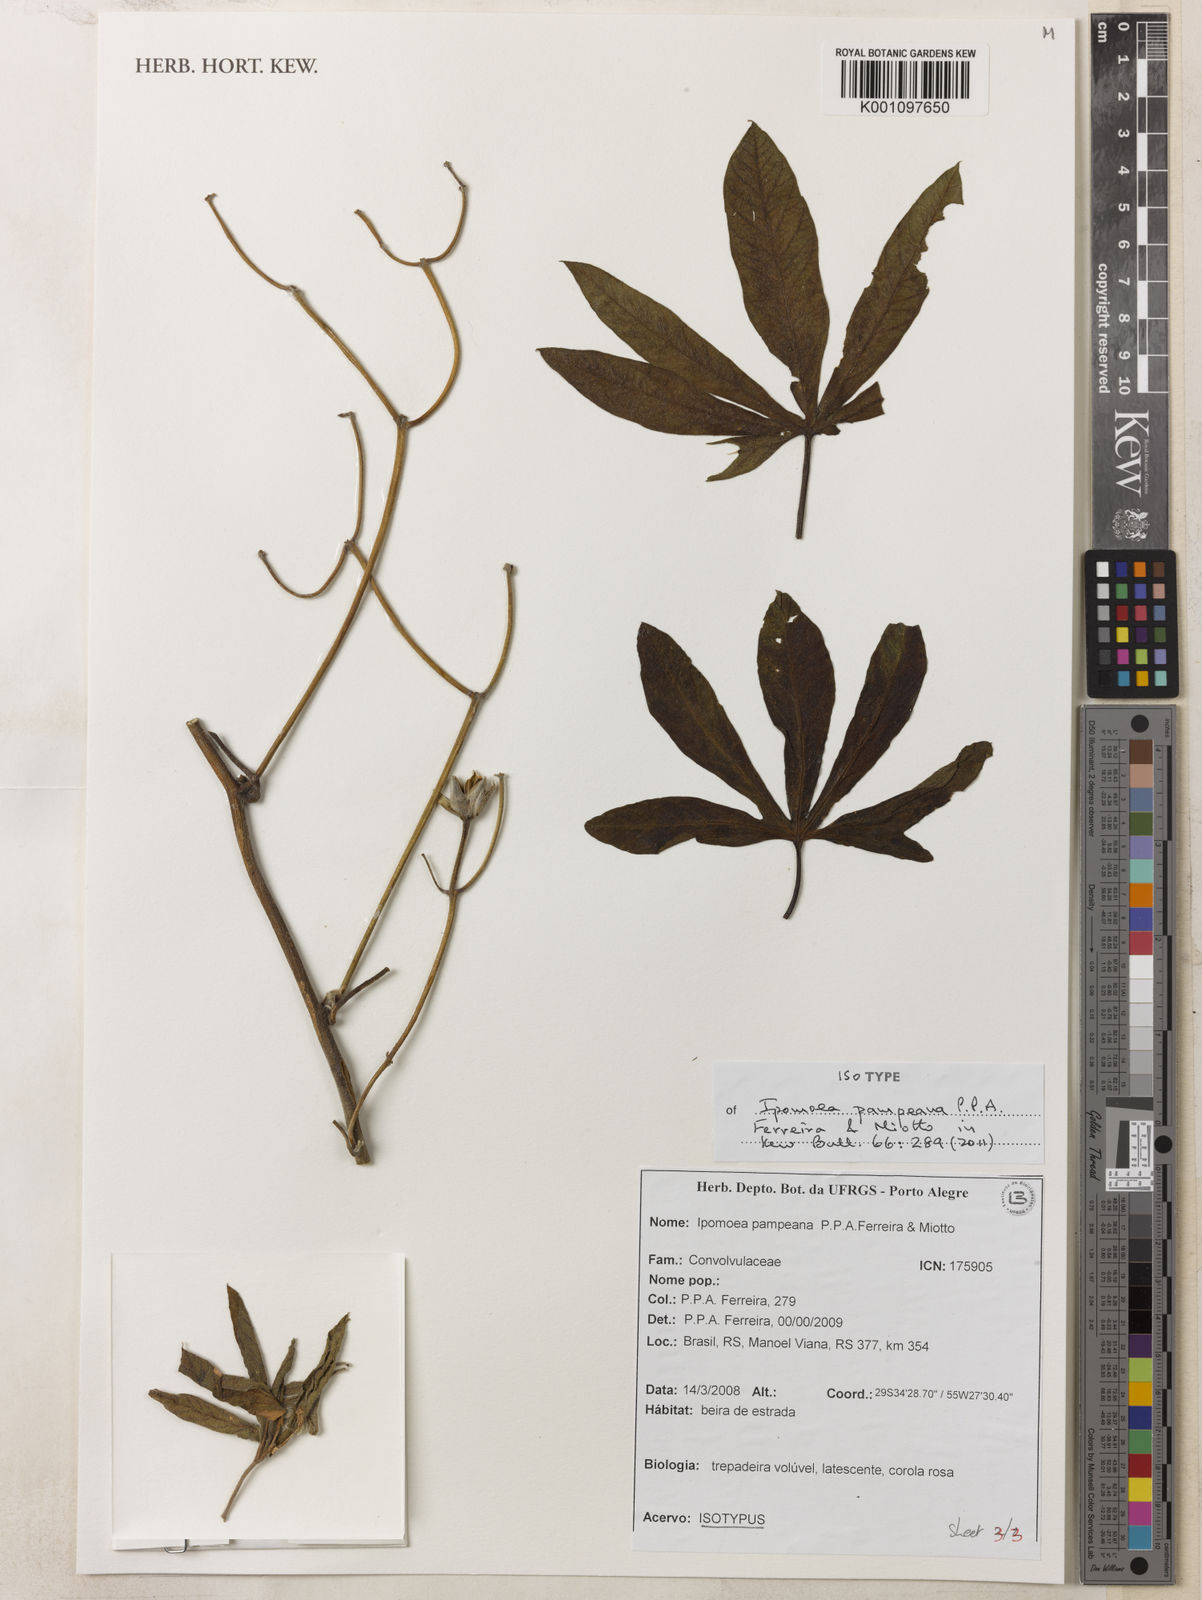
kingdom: Plantae
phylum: Tracheophyta
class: Magnoliopsida
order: Solanales
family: Convolvulaceae
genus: Ipomoea
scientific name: Ipomoea pampeana
